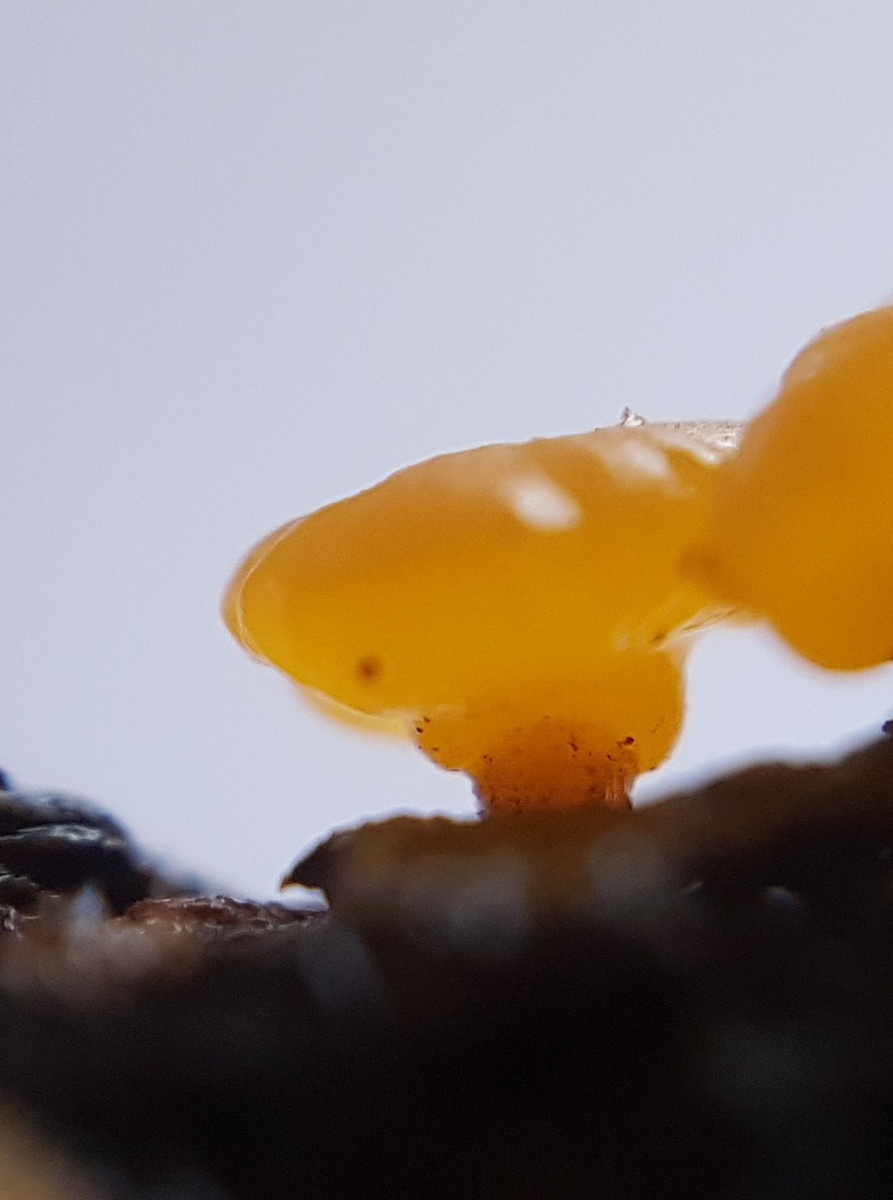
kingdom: Fungi
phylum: Basidiomycota
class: Dacrymycetes
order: Dacrymycetales
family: Dacrymycetaceae
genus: Dacrymyces
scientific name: Dacrymyces capitatus
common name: stilket tåresvamp
